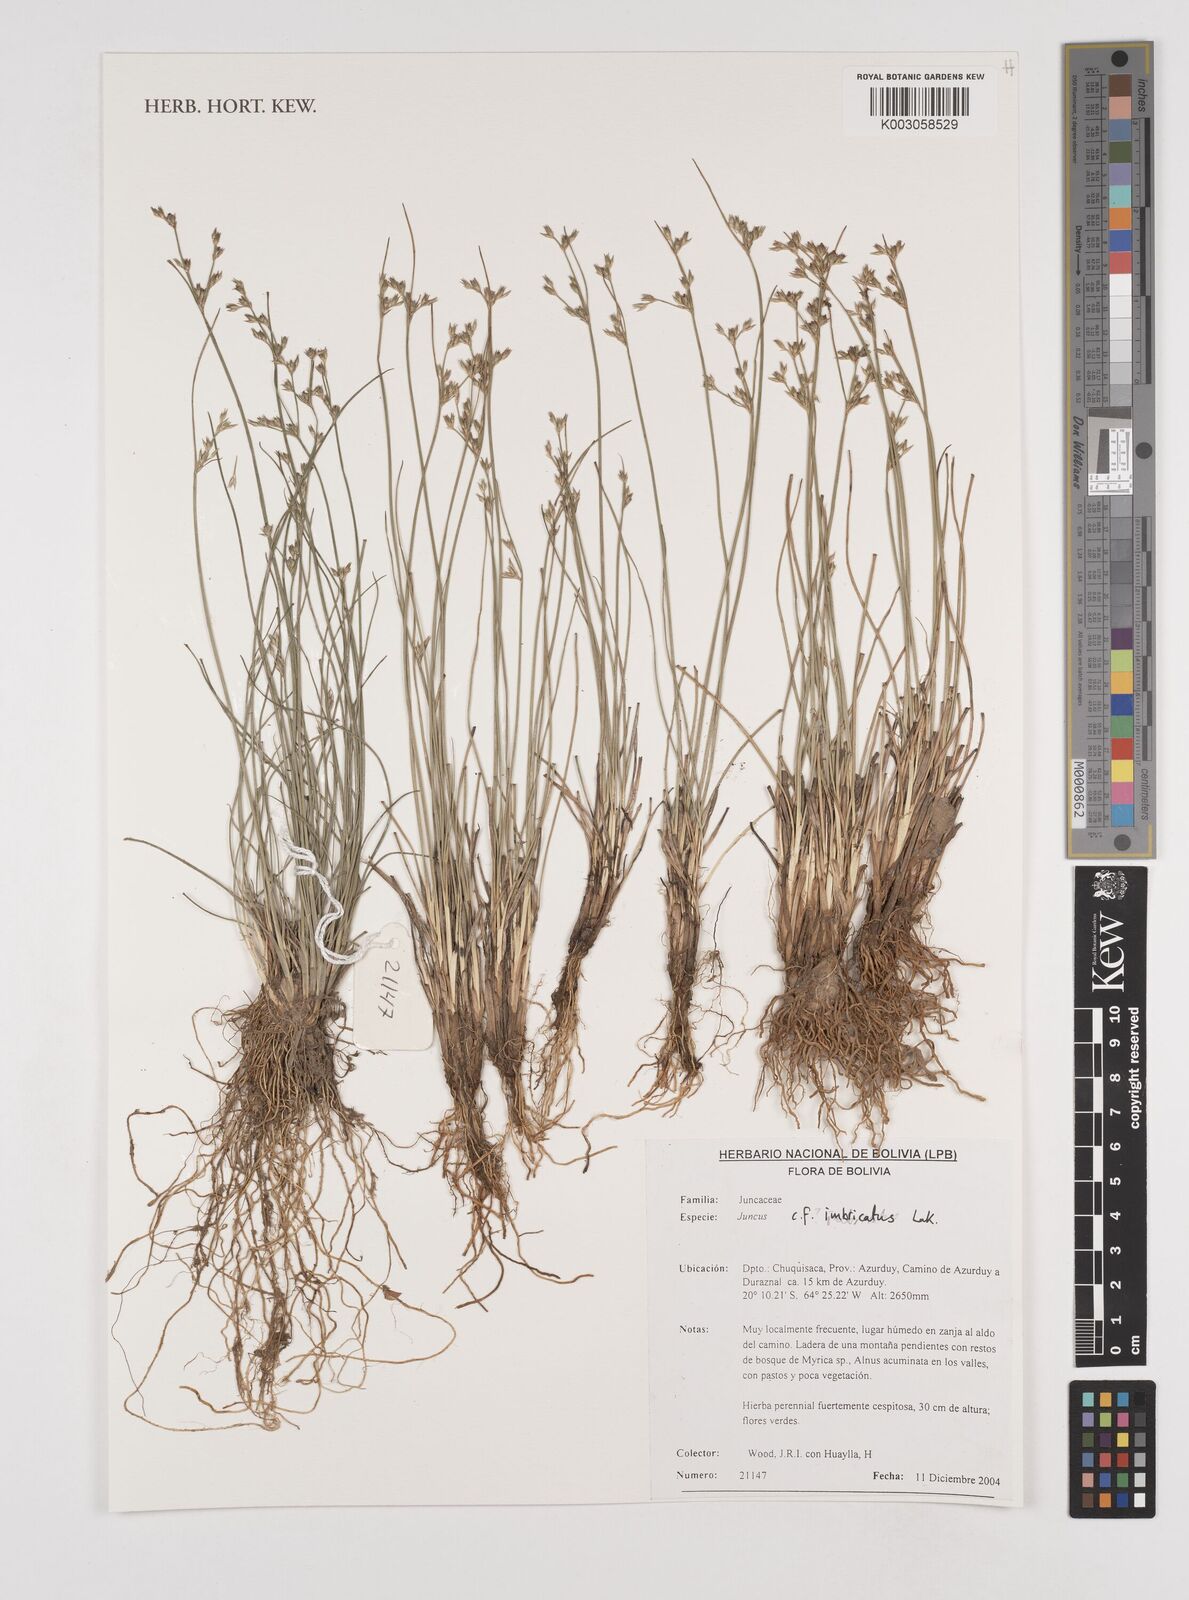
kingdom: Plantae
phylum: Tracheophyta
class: Liliopsida
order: Poales
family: Juncaceae
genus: Juncus
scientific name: Juncus imbricatus
